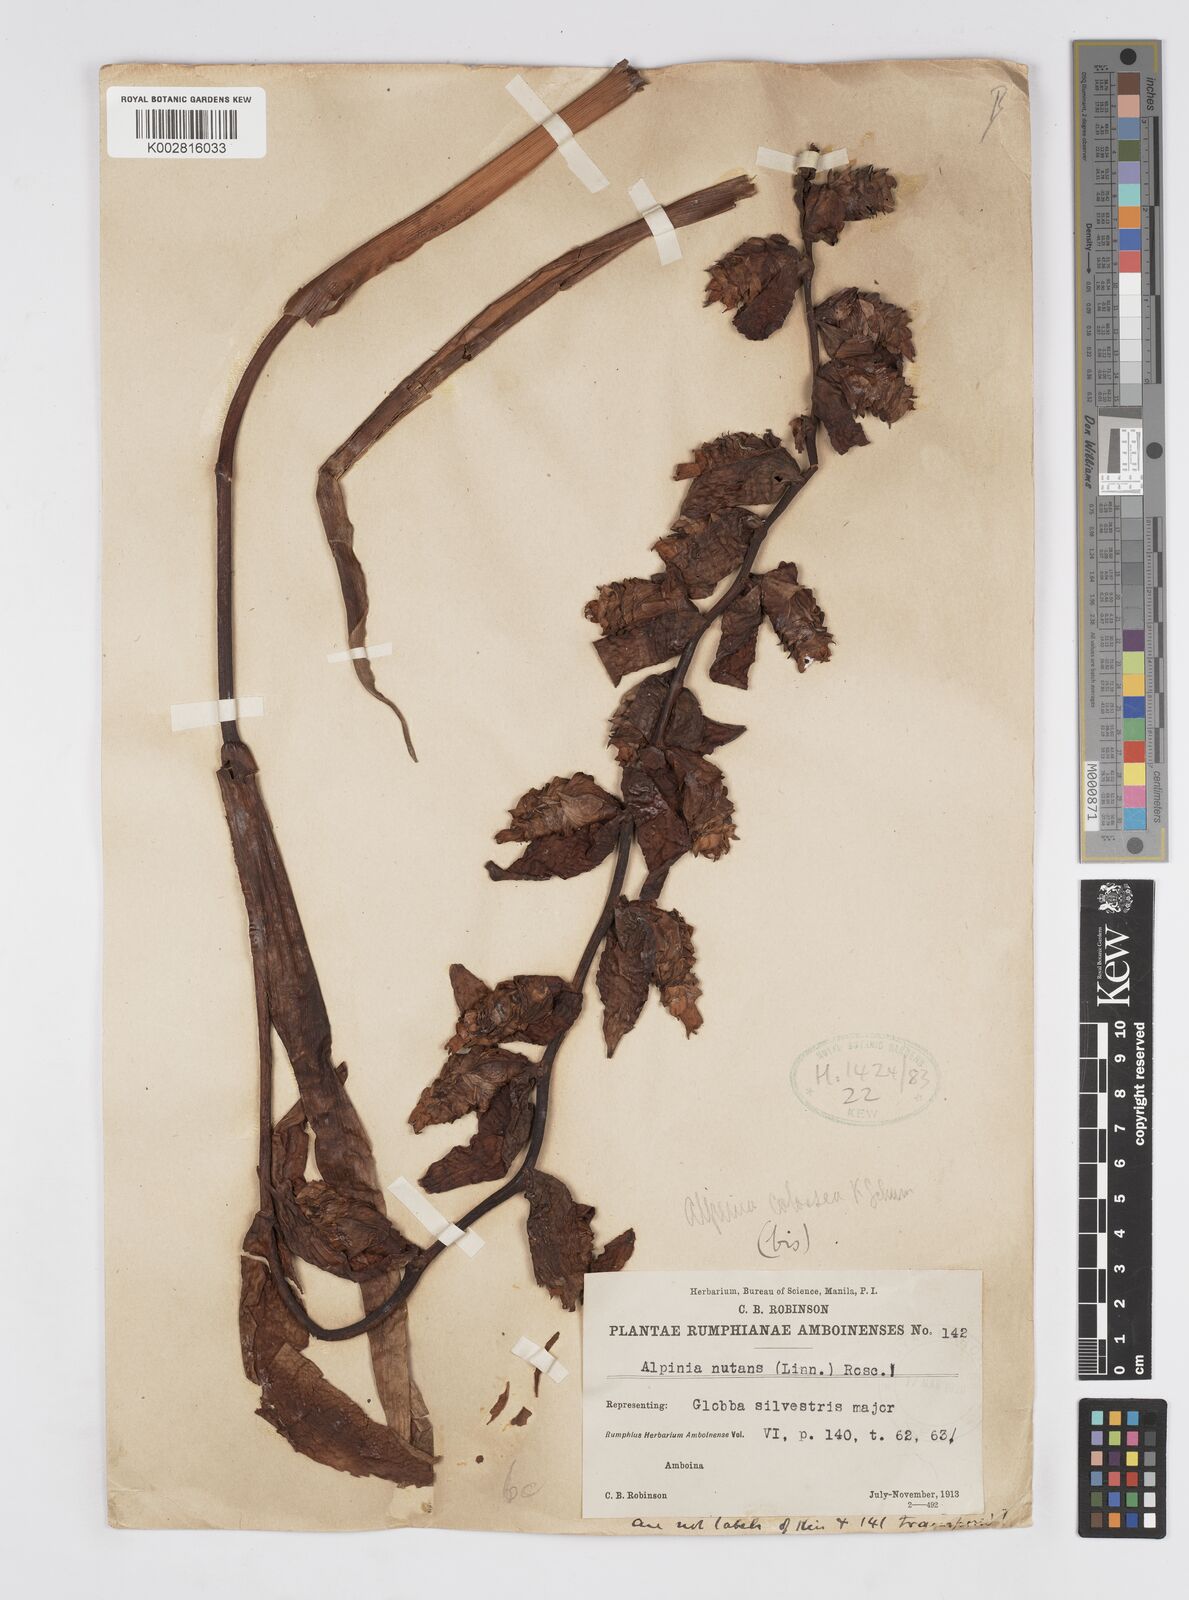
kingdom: Plantae
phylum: Tracheophyta
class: Liliopsida
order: Zingiberales
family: Zingiberaceae
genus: Alpinia
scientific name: Alpinia nutans
